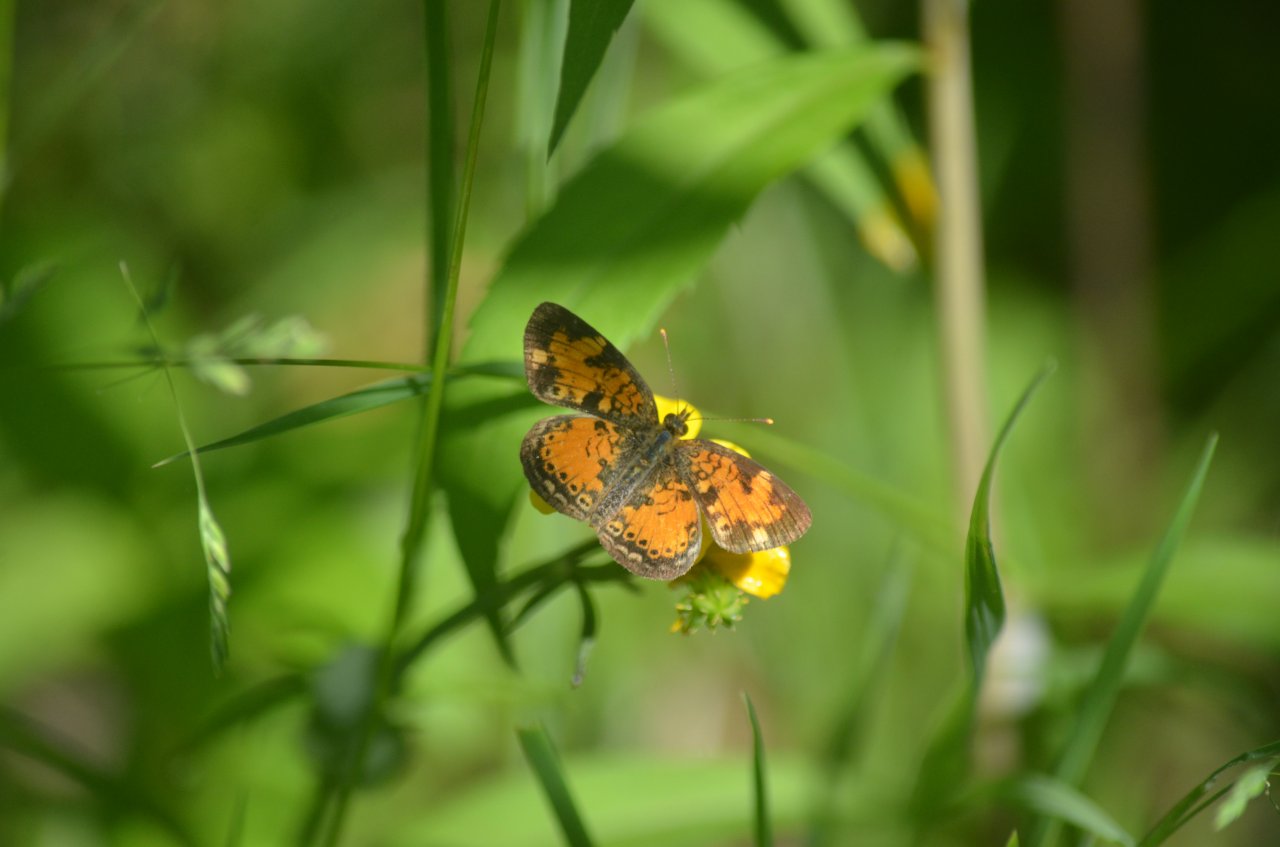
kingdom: Animalia
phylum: Arthropoda
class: Insecta
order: Lepidoptera
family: Nymphalidae
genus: Phyciodes
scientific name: Phyciodes tharos
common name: Northern Crescent
